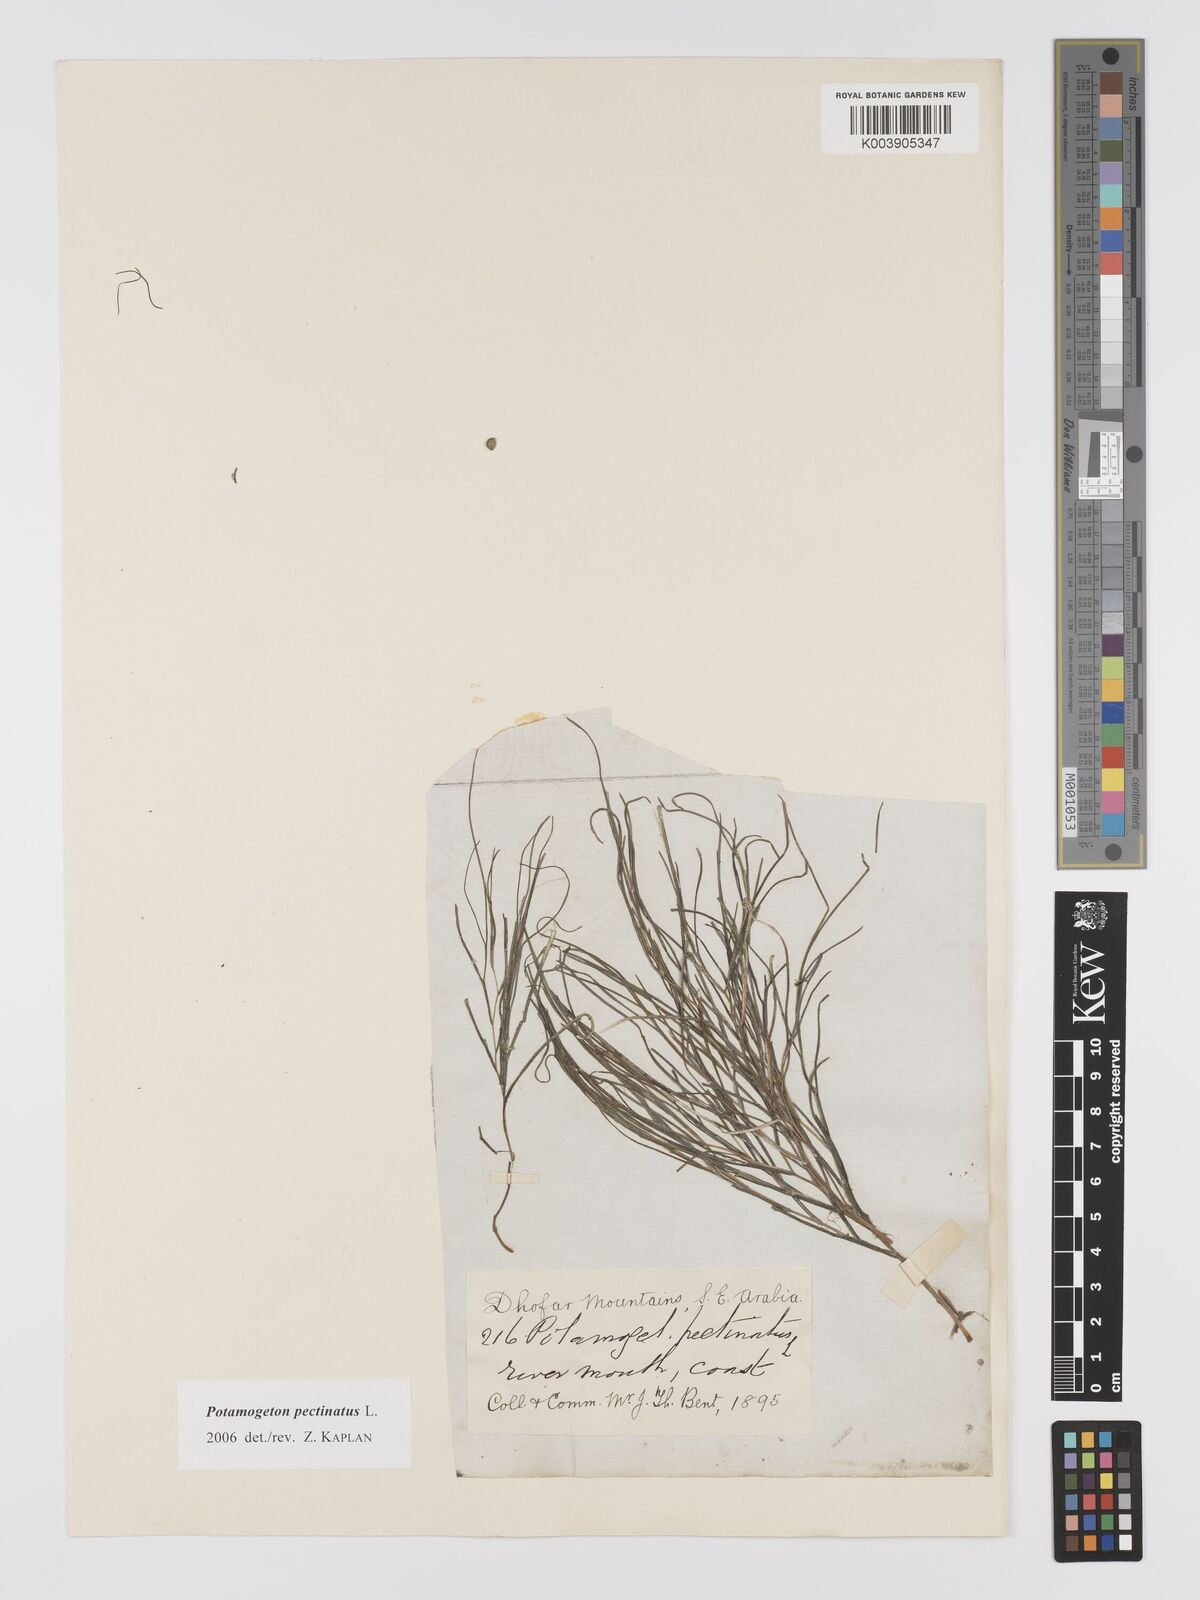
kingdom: Plantae
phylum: Tracheophyta
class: Liliopsida
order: Alismatales
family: Potamogetonaceae
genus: Stuckenia
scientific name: Stuckenia pectinata
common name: Sago pondweed
